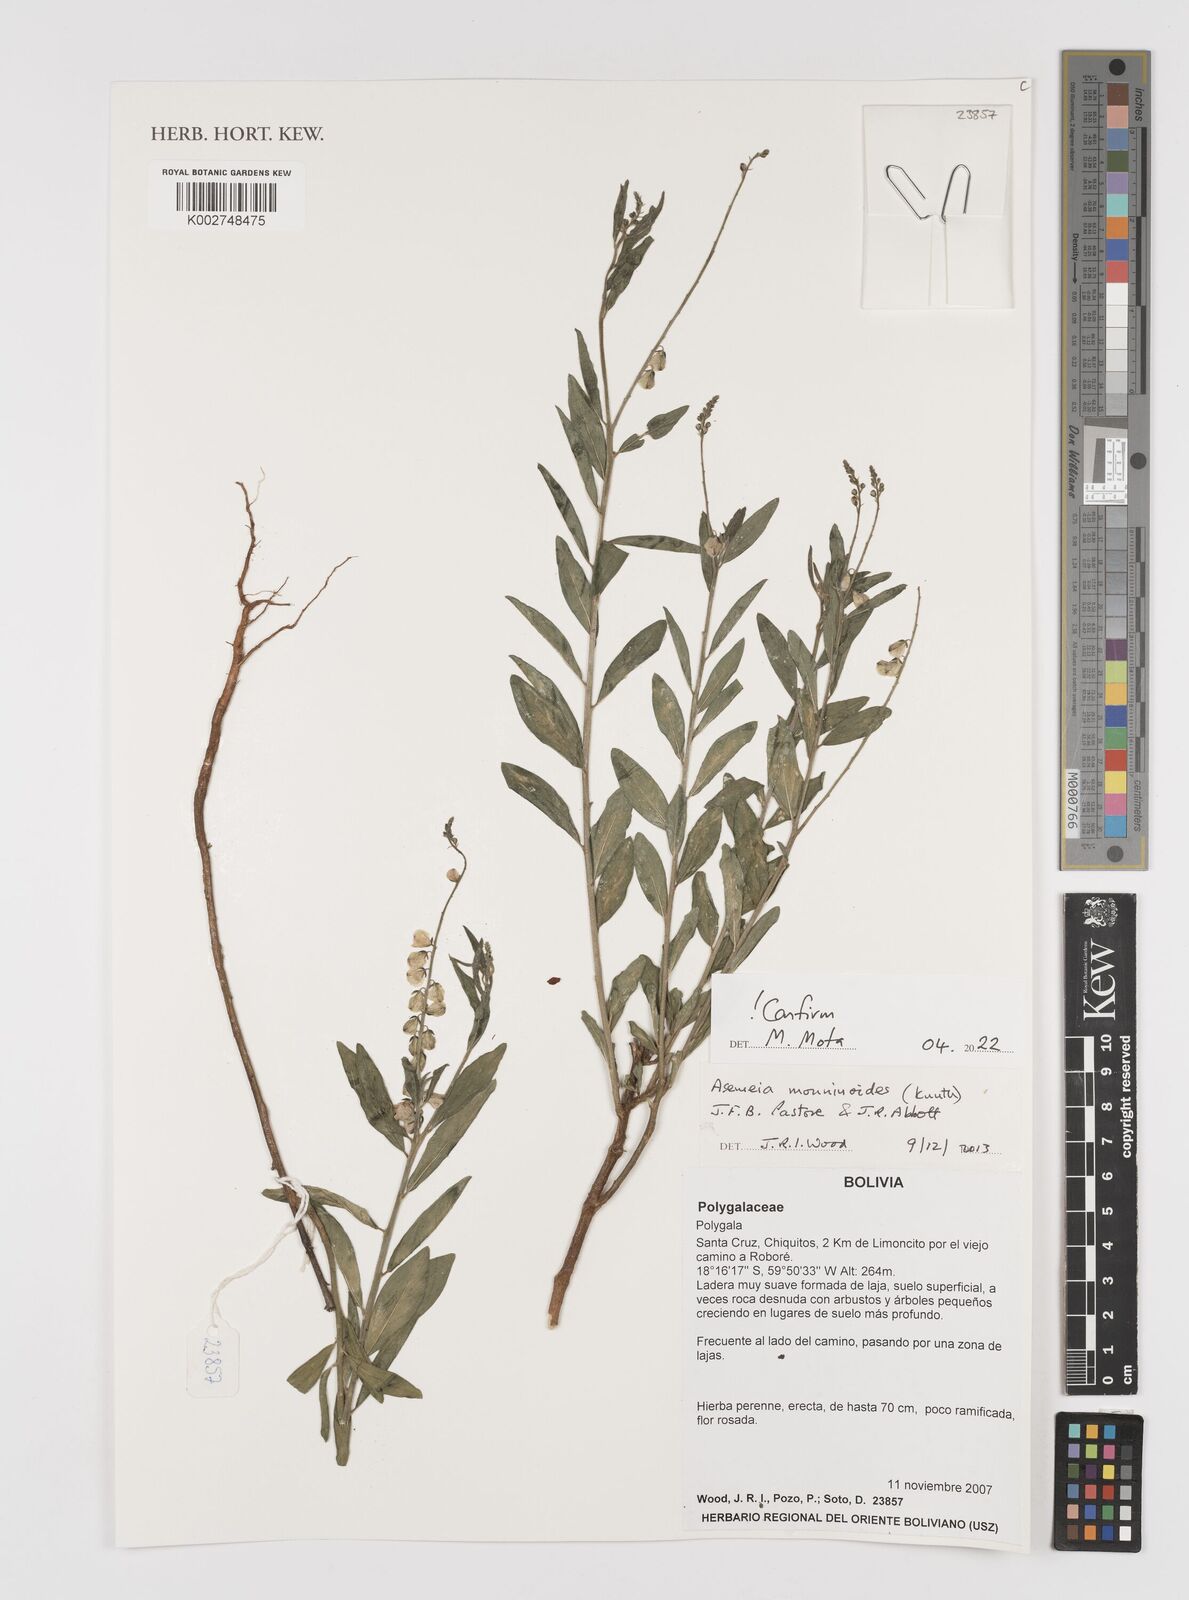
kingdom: Plantae
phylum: Tracheophyta
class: Magnoliopsida
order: Fabales
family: Polygalaceae
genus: Asemeia
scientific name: Asemeia monninoides
